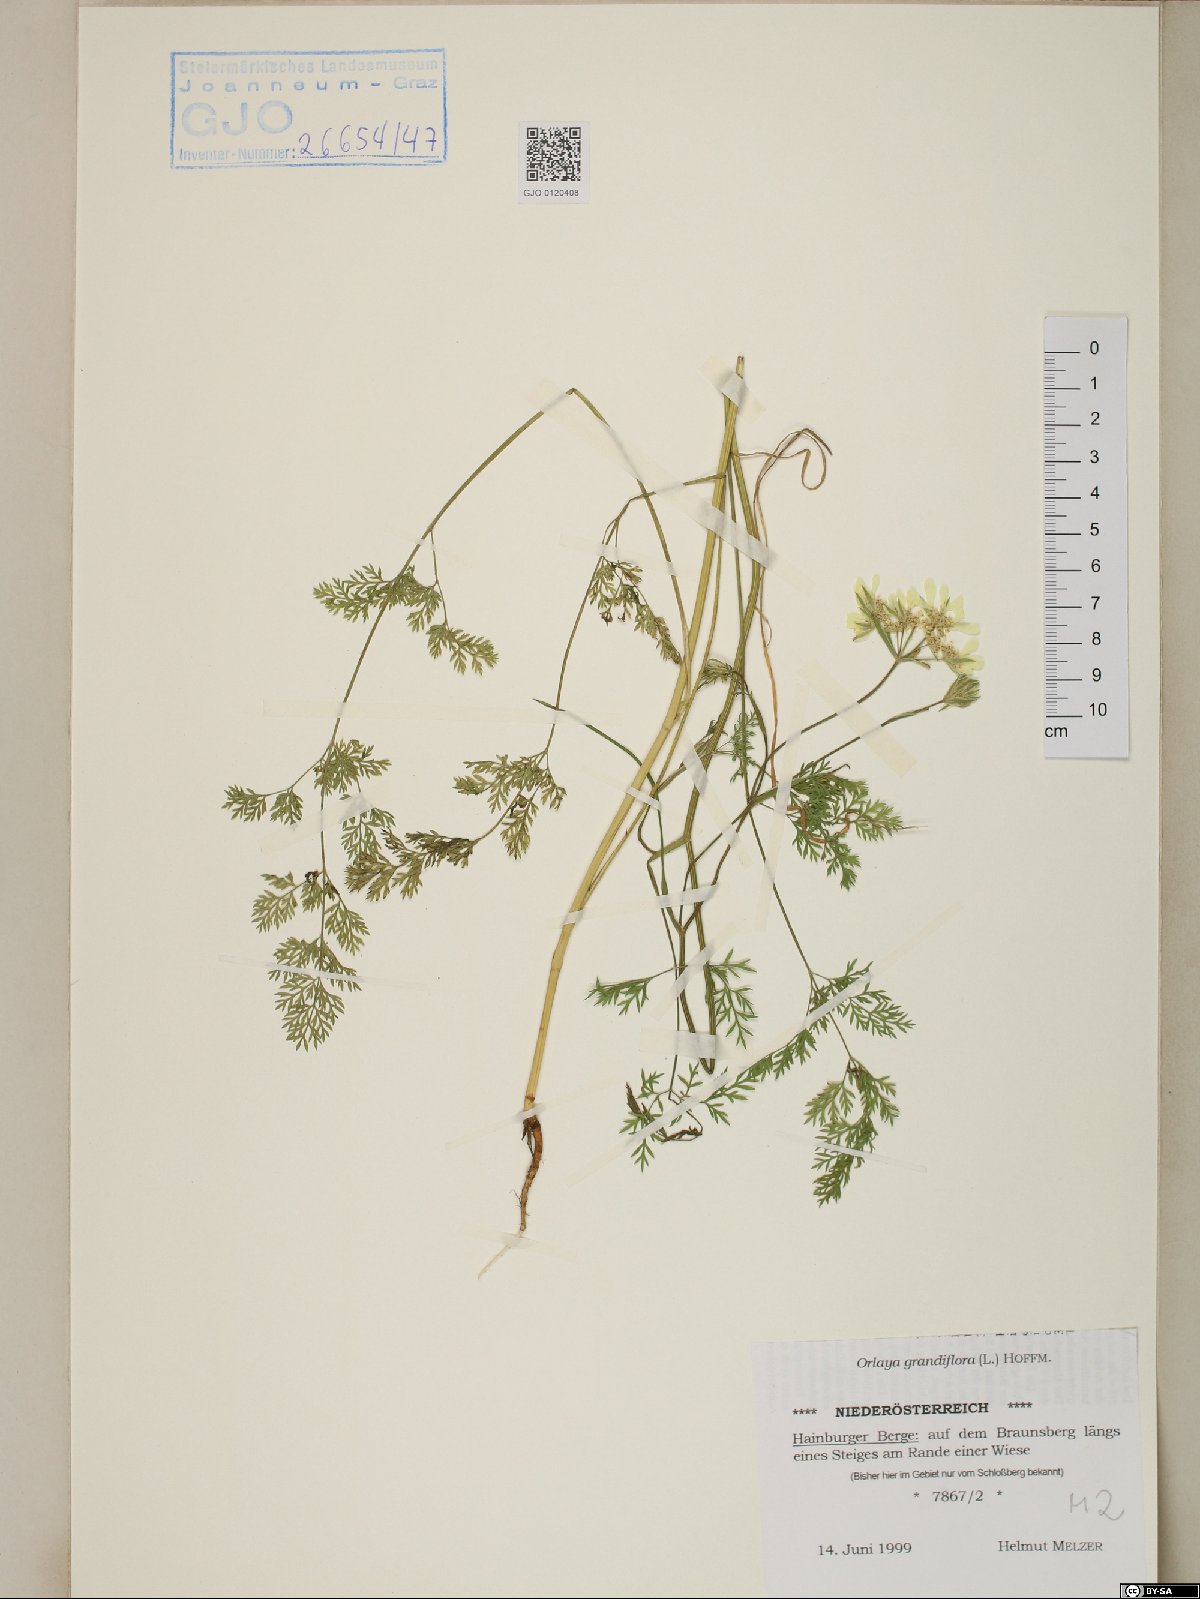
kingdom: Plantae
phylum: Tracheophyta
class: Magnoliopsida
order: Apiales
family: Apiaceae
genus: Orlaya
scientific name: Orlaya grandiflora
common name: White lace flower
